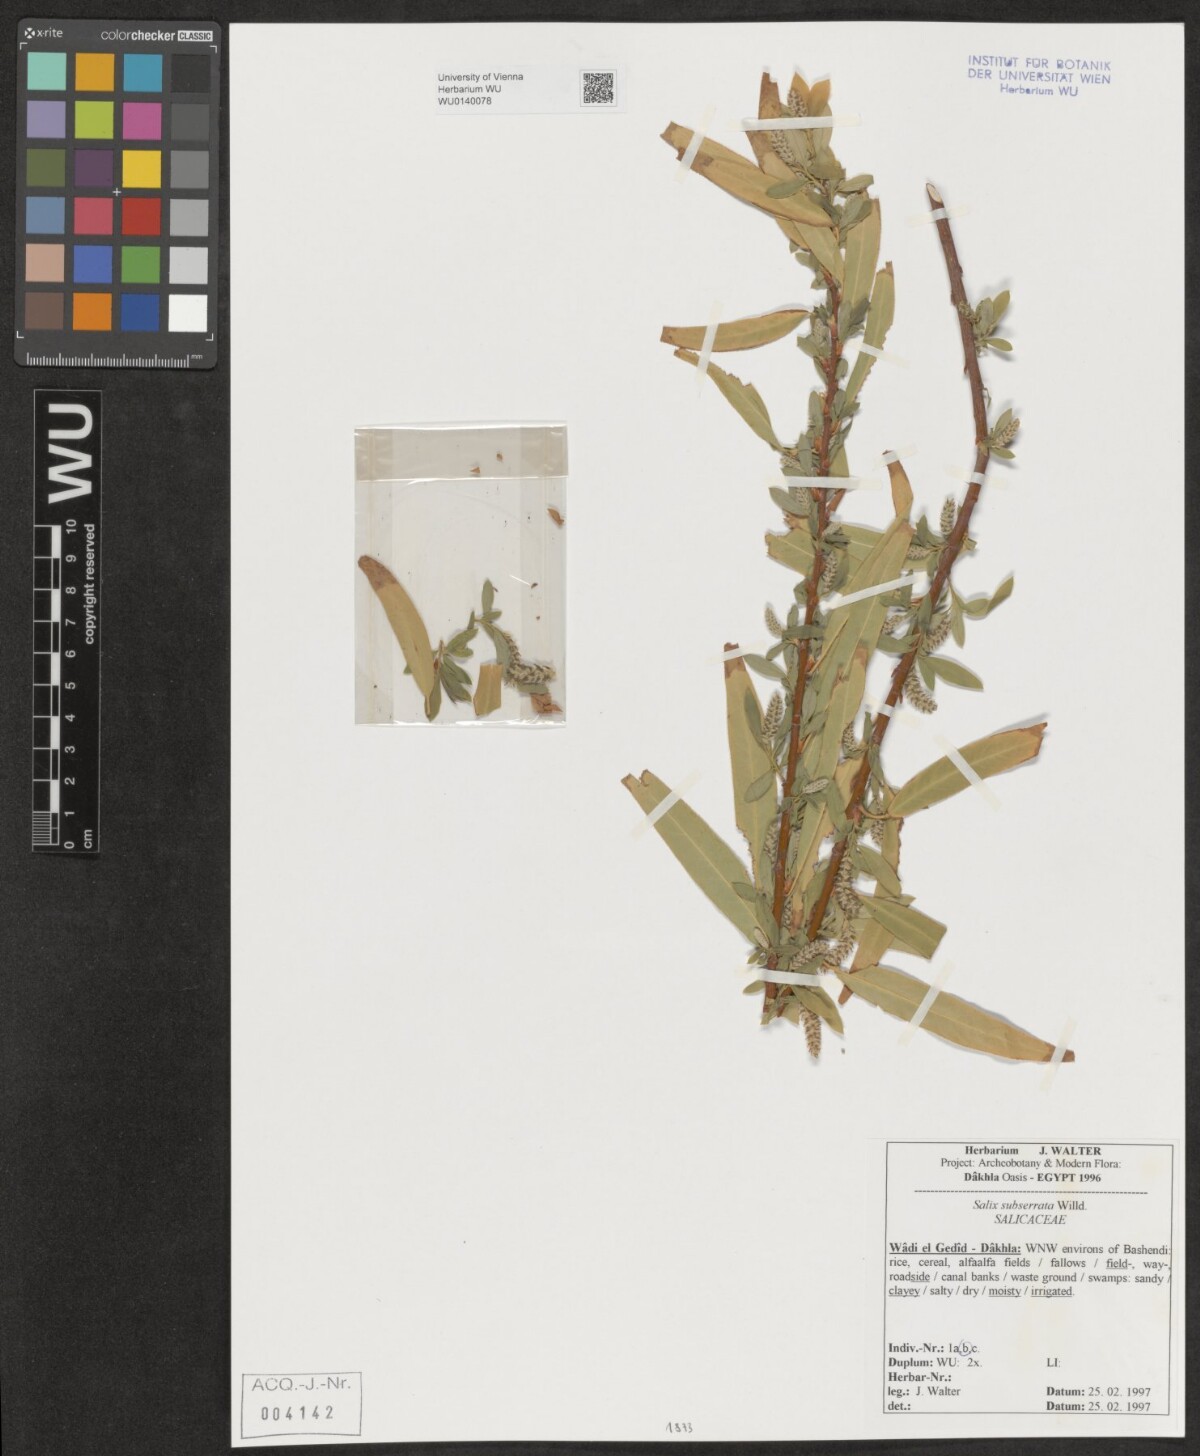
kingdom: Plantae
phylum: Tracheophyta
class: Magnoliopsida
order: Malpighiales
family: Salicaceae
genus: Salix
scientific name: Salix mucronata
